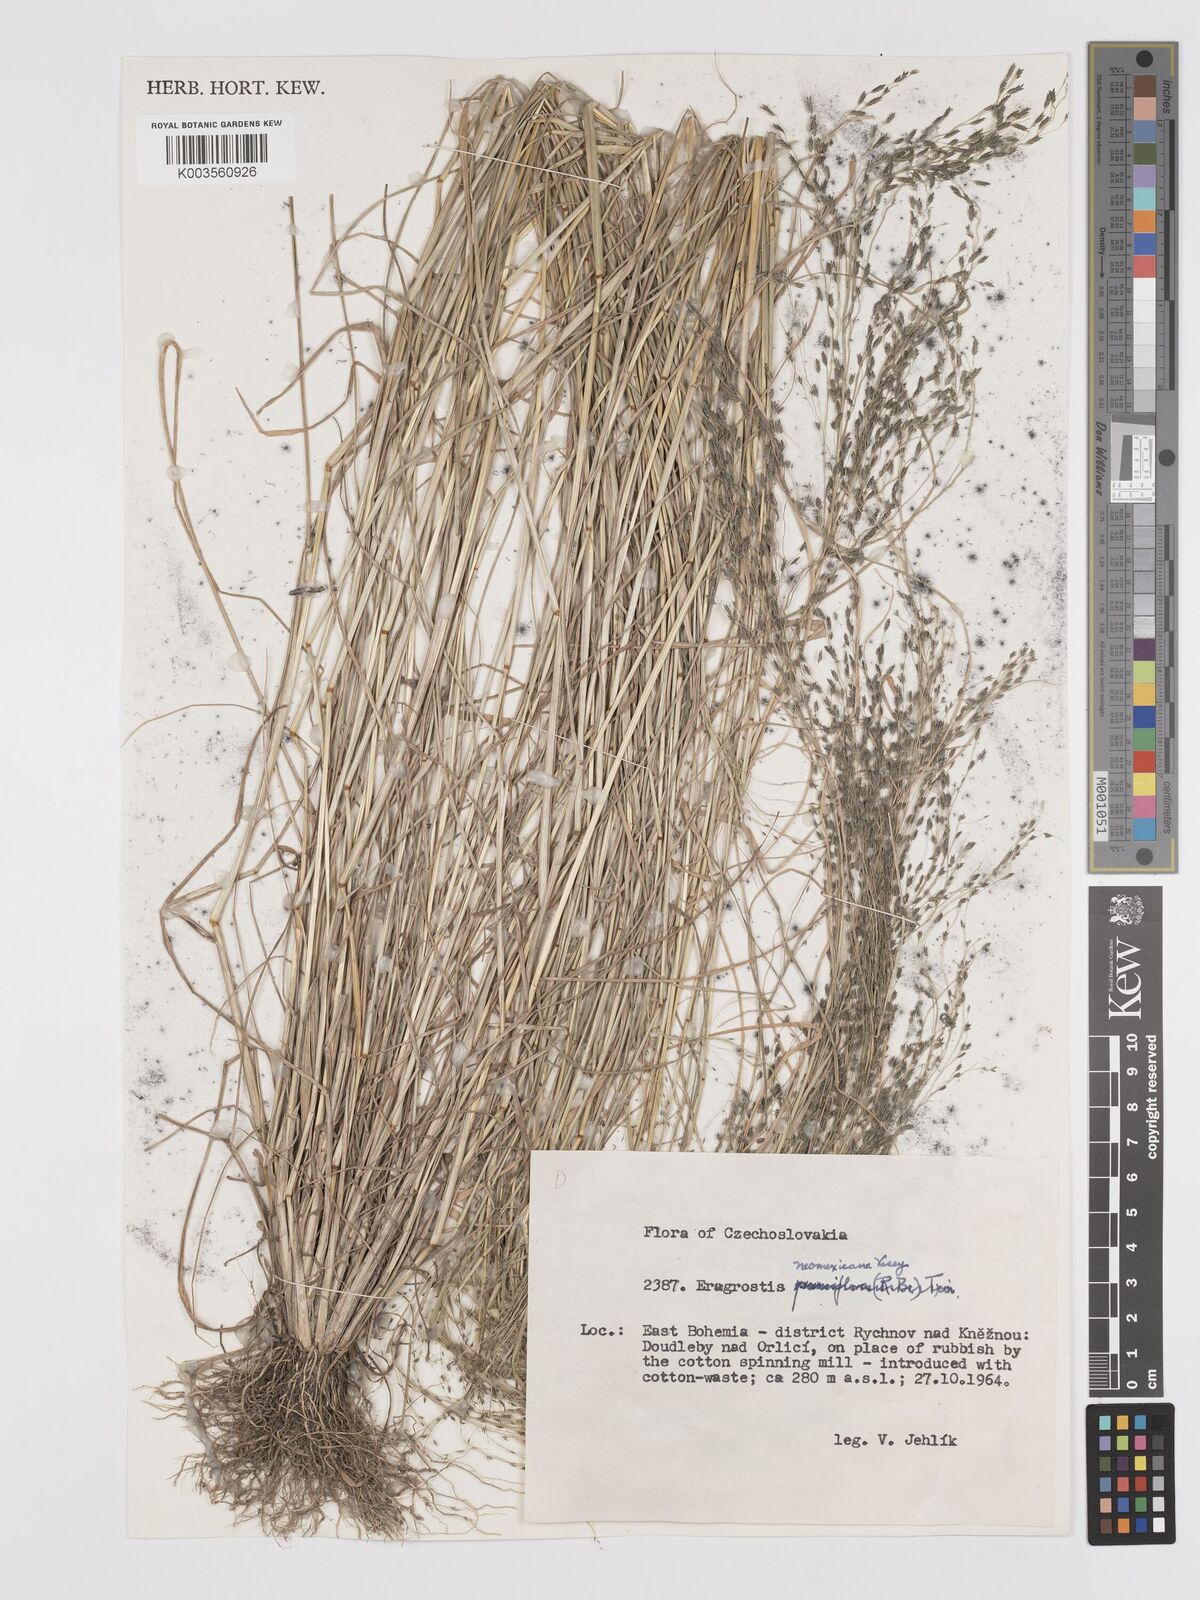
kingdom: Plantae
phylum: Tracheophyta
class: Liliopsida
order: Poales
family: Poaceae
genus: Eragrostis
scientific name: Eragrostis mexicana
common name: Mexican love grass
